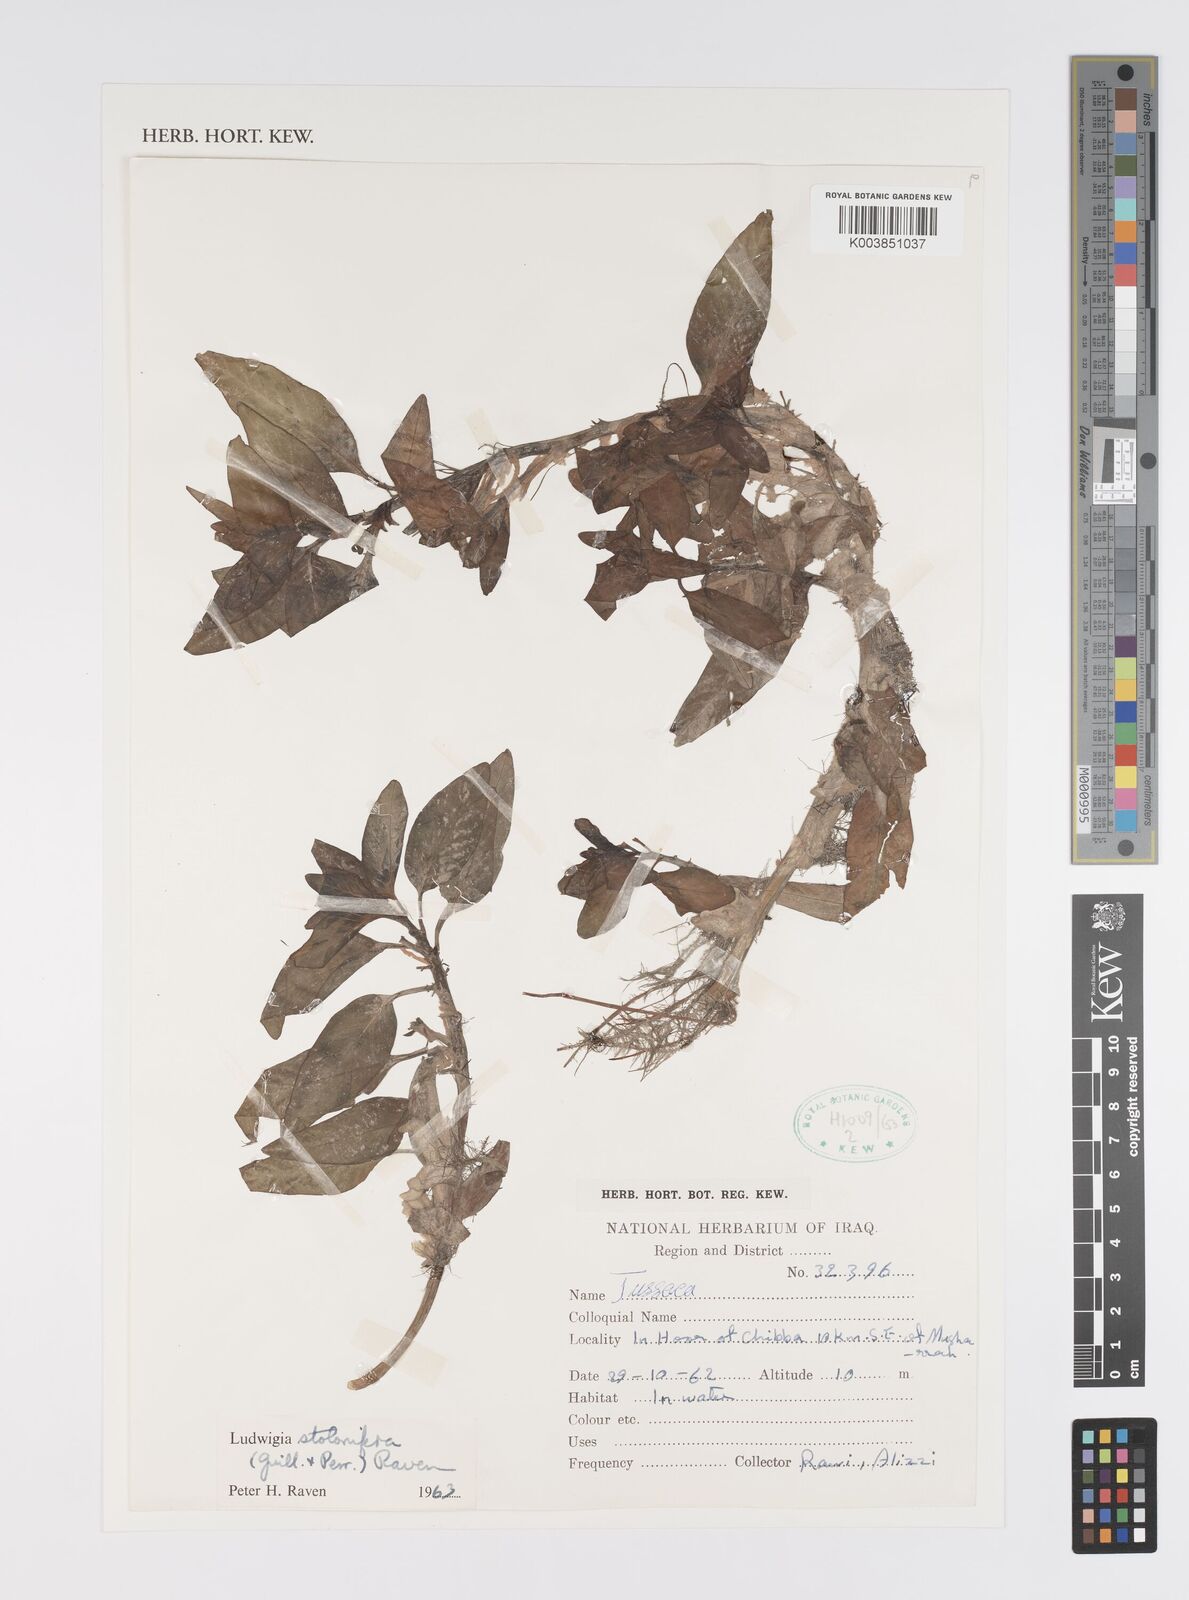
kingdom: Plantae
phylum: Tracheophyta
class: Magnoliopsida
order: Myrtales
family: Onagraceae
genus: Ludwigia
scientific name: Ludwigia adscendens
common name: Creeping water primrose
